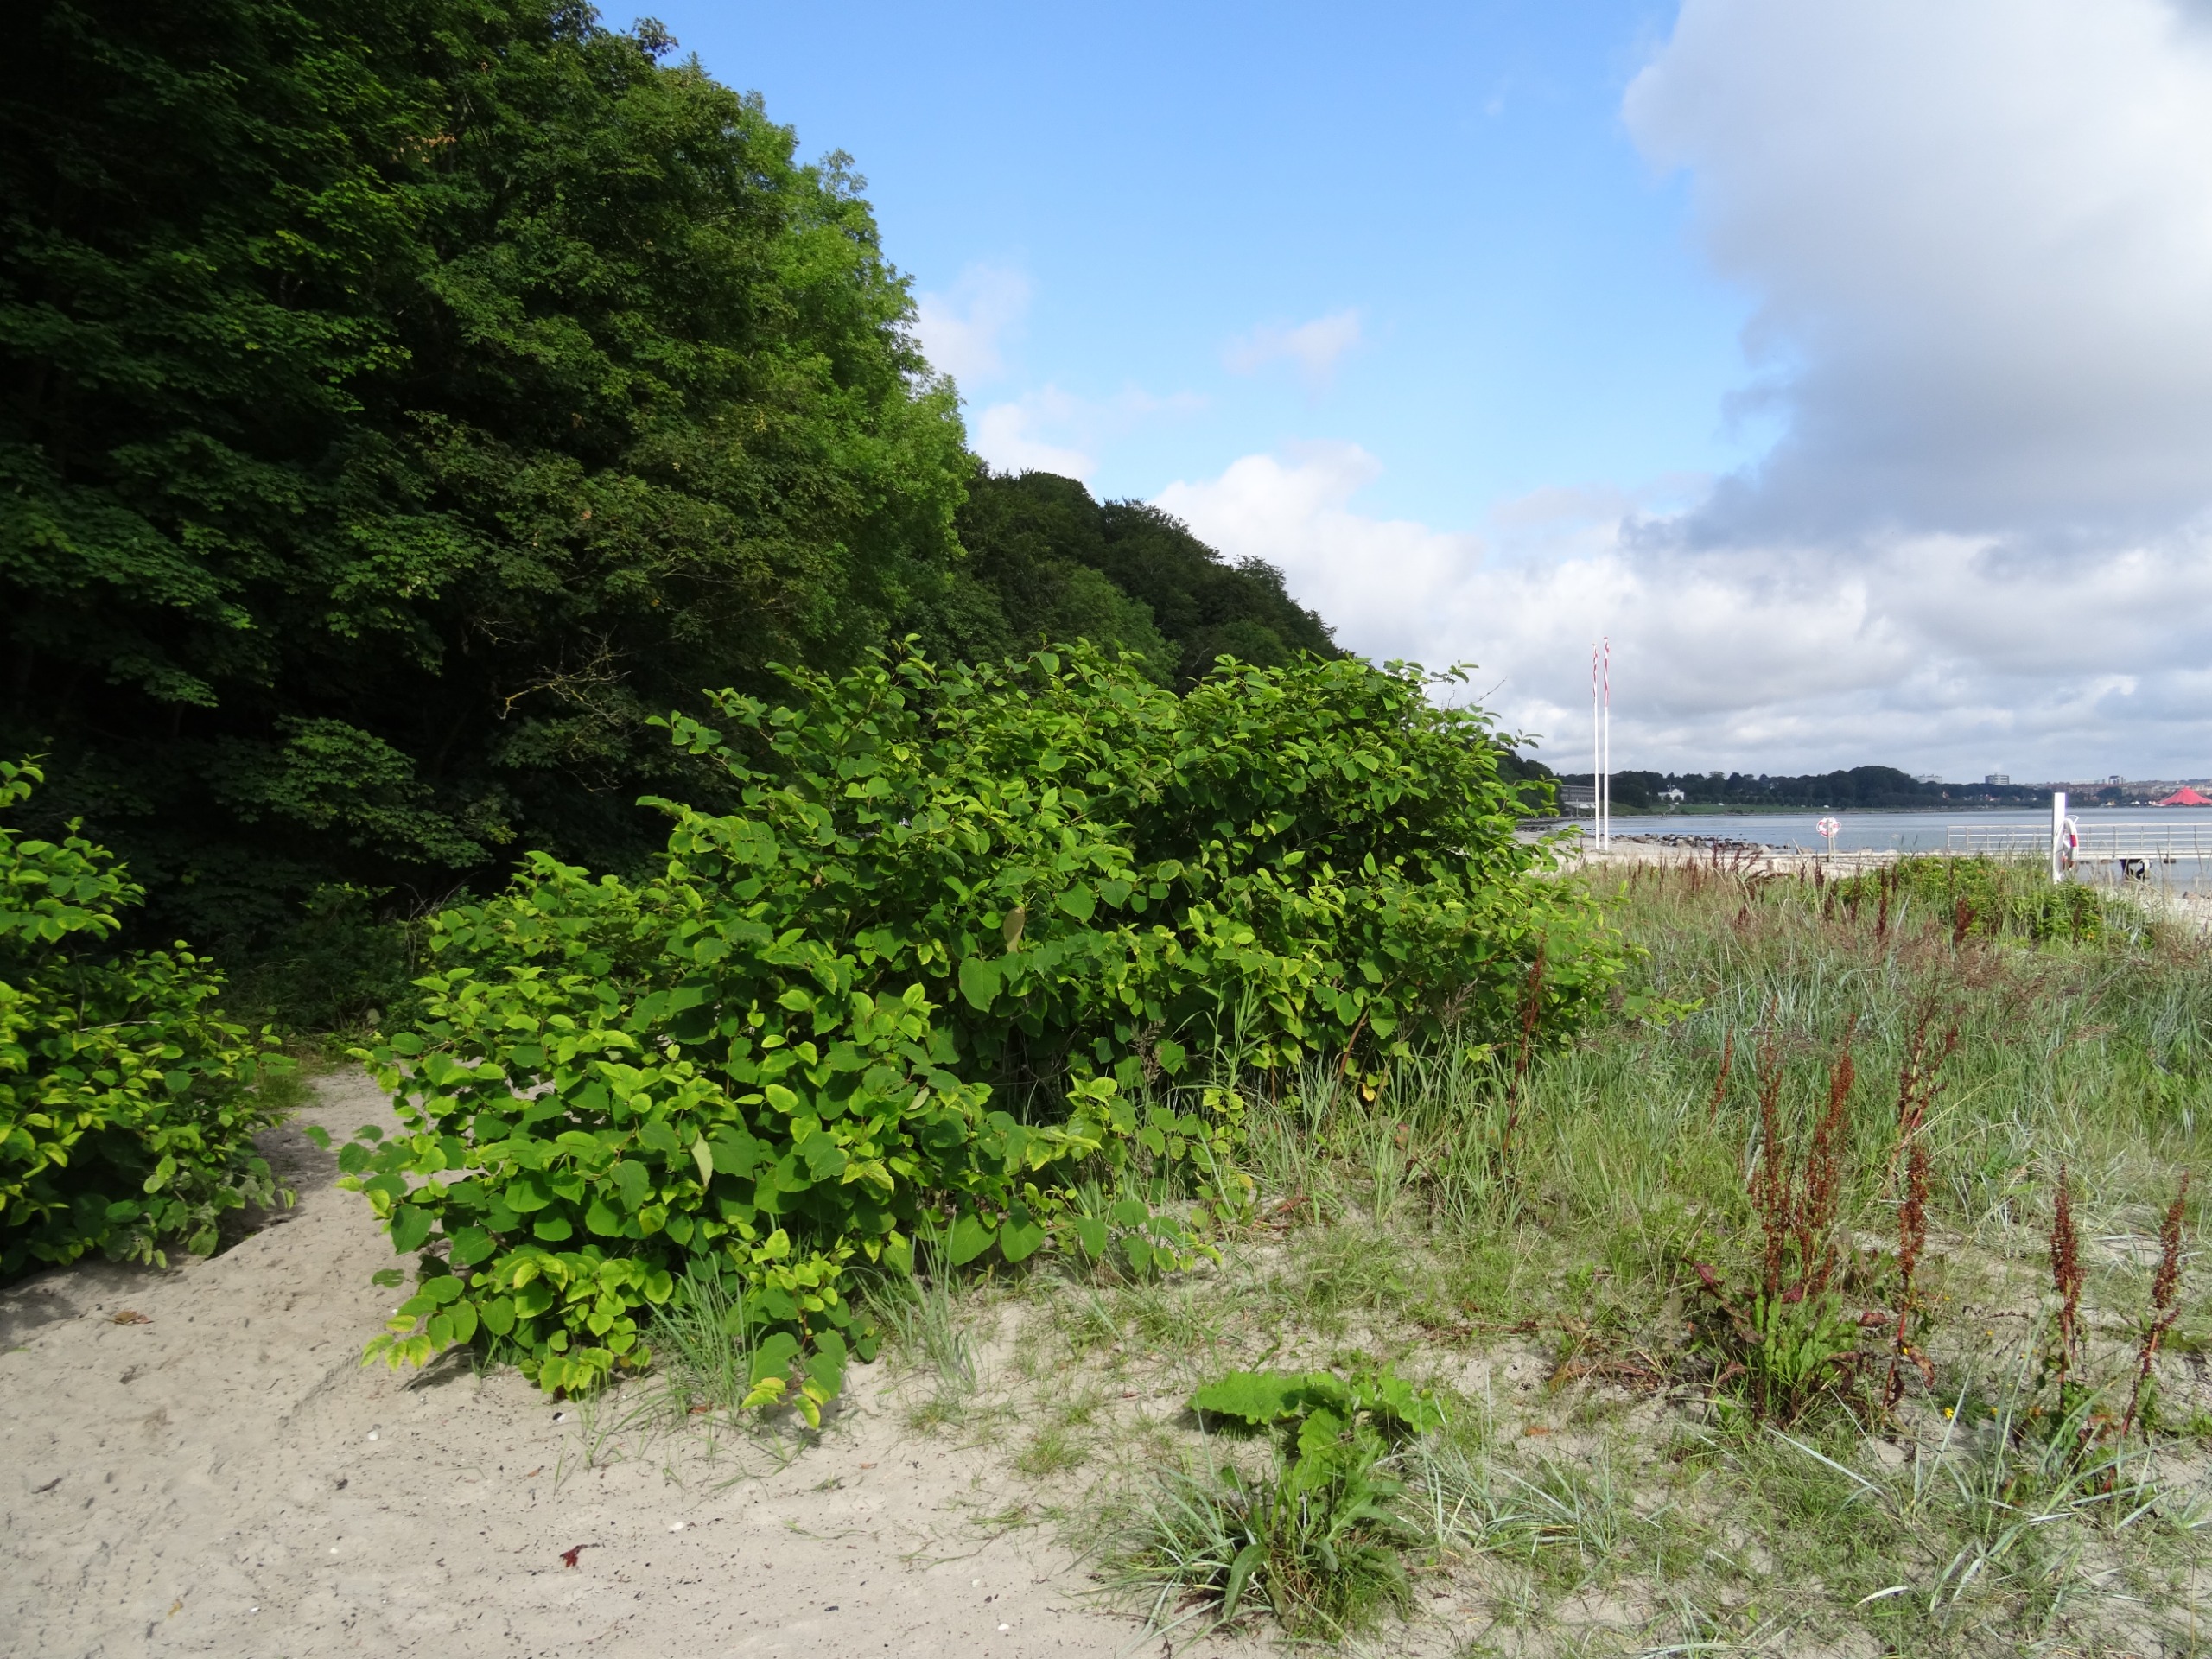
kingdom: Plantae
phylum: Tracheophyta
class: Magnoliopsida
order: Caryophyllales
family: Polygonaceae
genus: Reynoutria
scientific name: Reynoutria japonica
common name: Japan-pileurt
